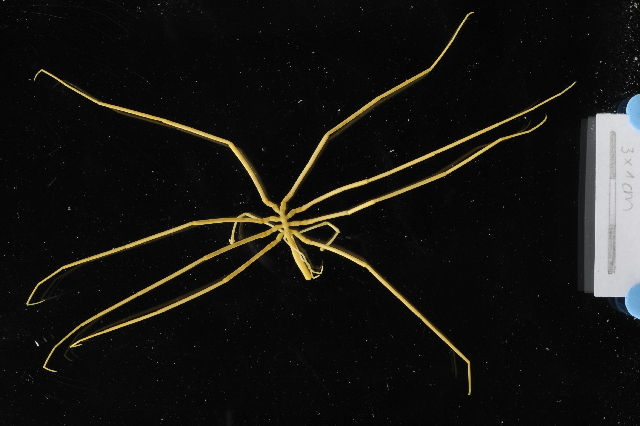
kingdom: Animalia
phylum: Arthropoda
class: Pycnogonida
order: Pantopoda
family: Colossendeidae
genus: Colossendeis
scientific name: Colossendeis megalonyx
